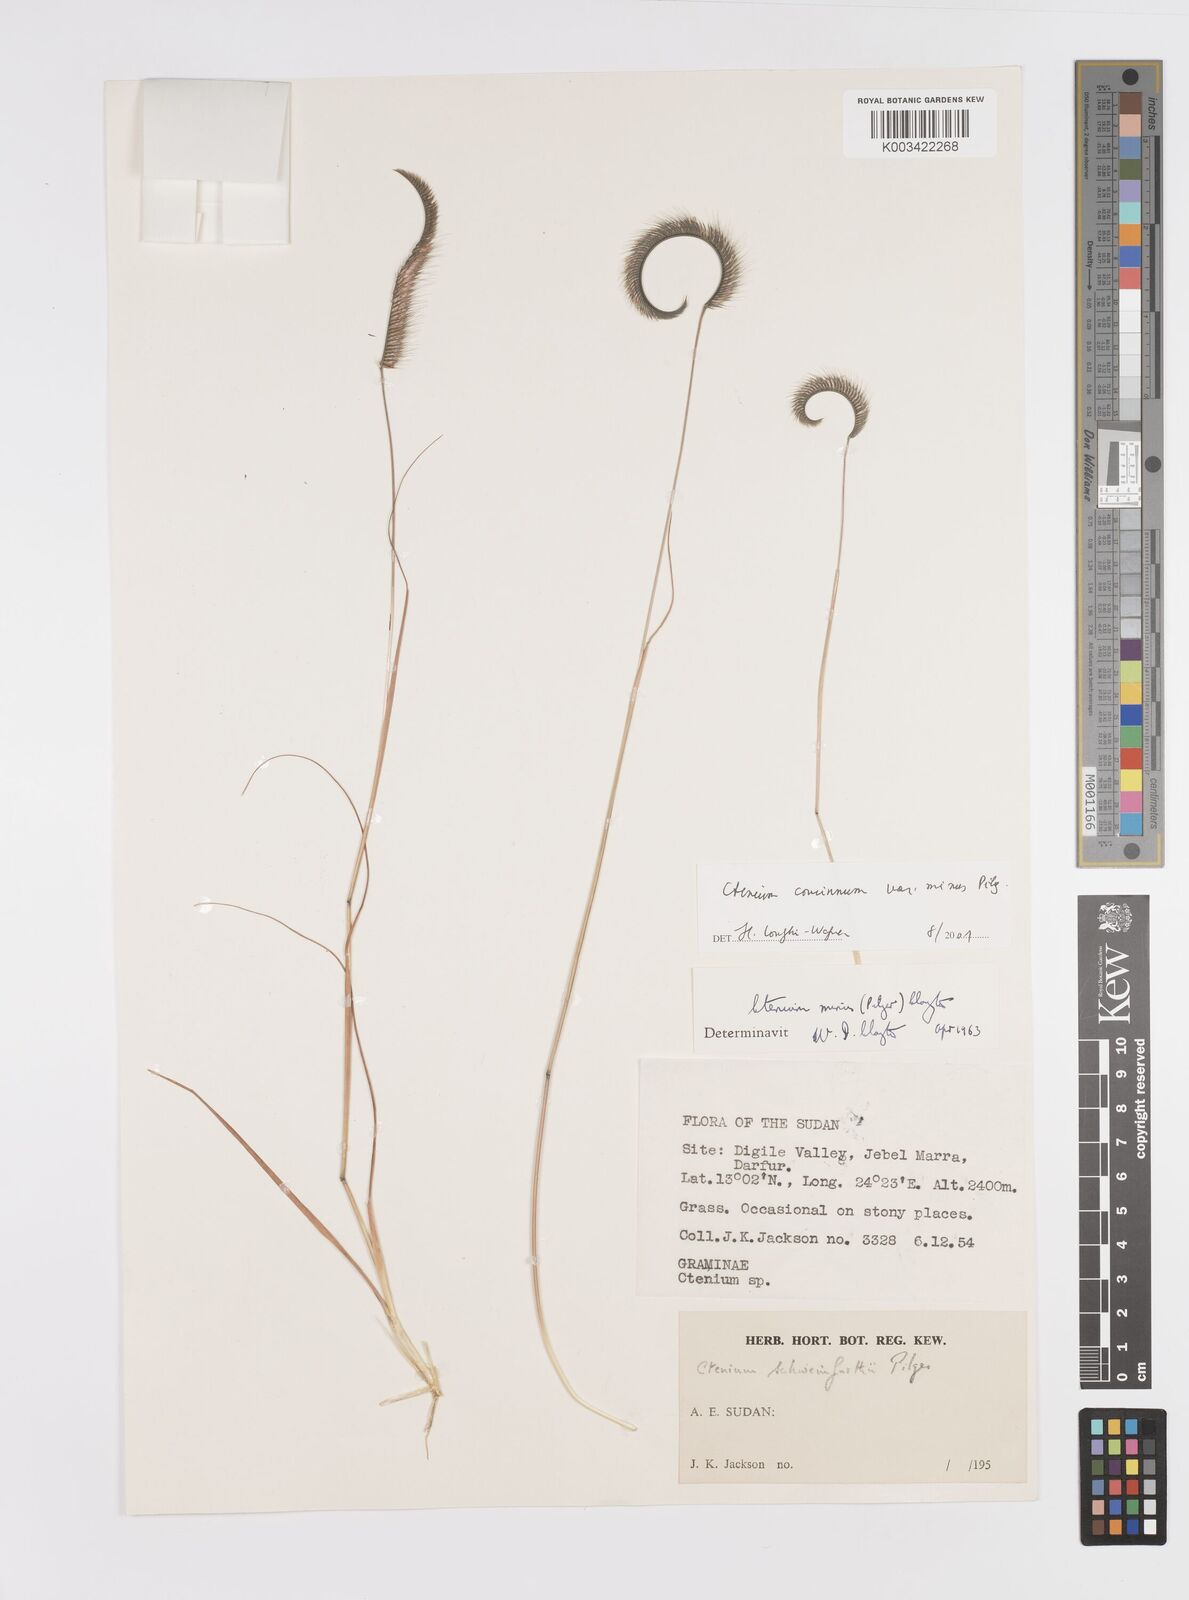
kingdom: Plantae
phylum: Tracheophyta
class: Liliopsida
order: Poales
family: Poaceae
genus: Ctenium
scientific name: Ctenium concinnum
